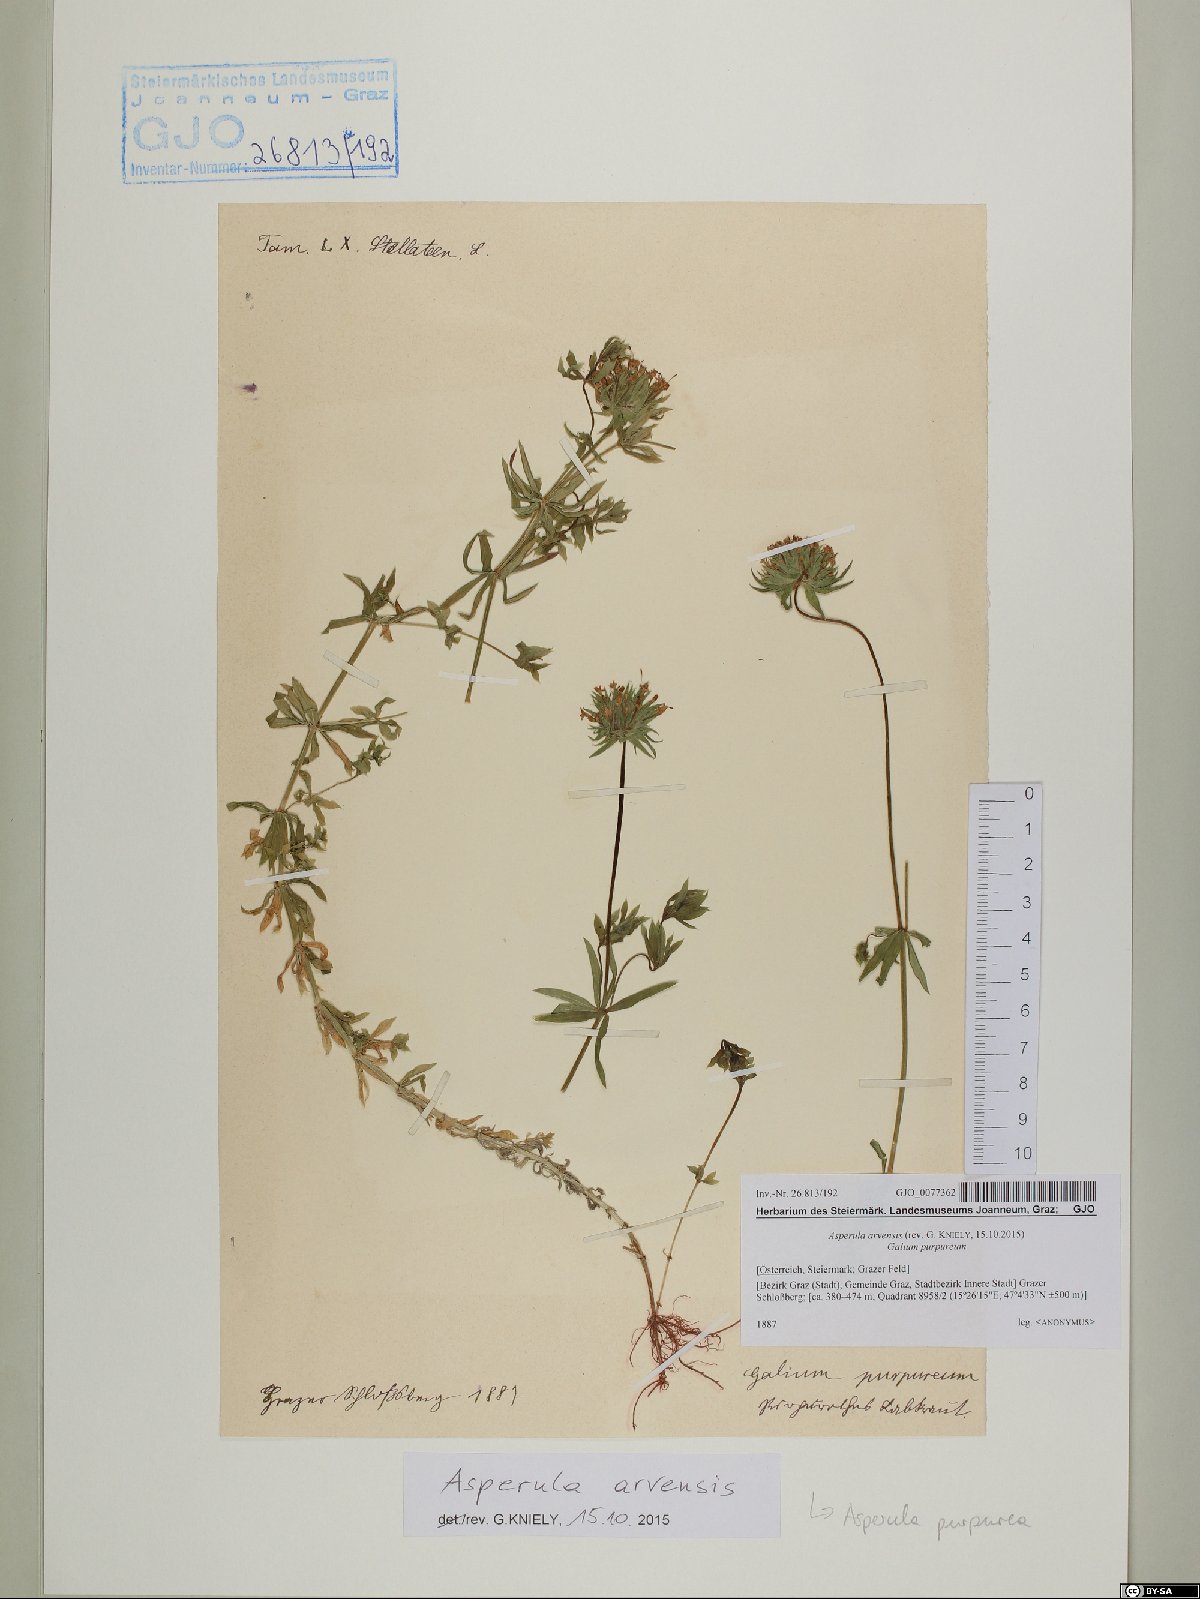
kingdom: Plantae
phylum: Tracheophyta
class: Magnoliopsida
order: Gentianales
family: Rubiaceae
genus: Asperula
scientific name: Asperula arvensis
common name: Blue woodruff
